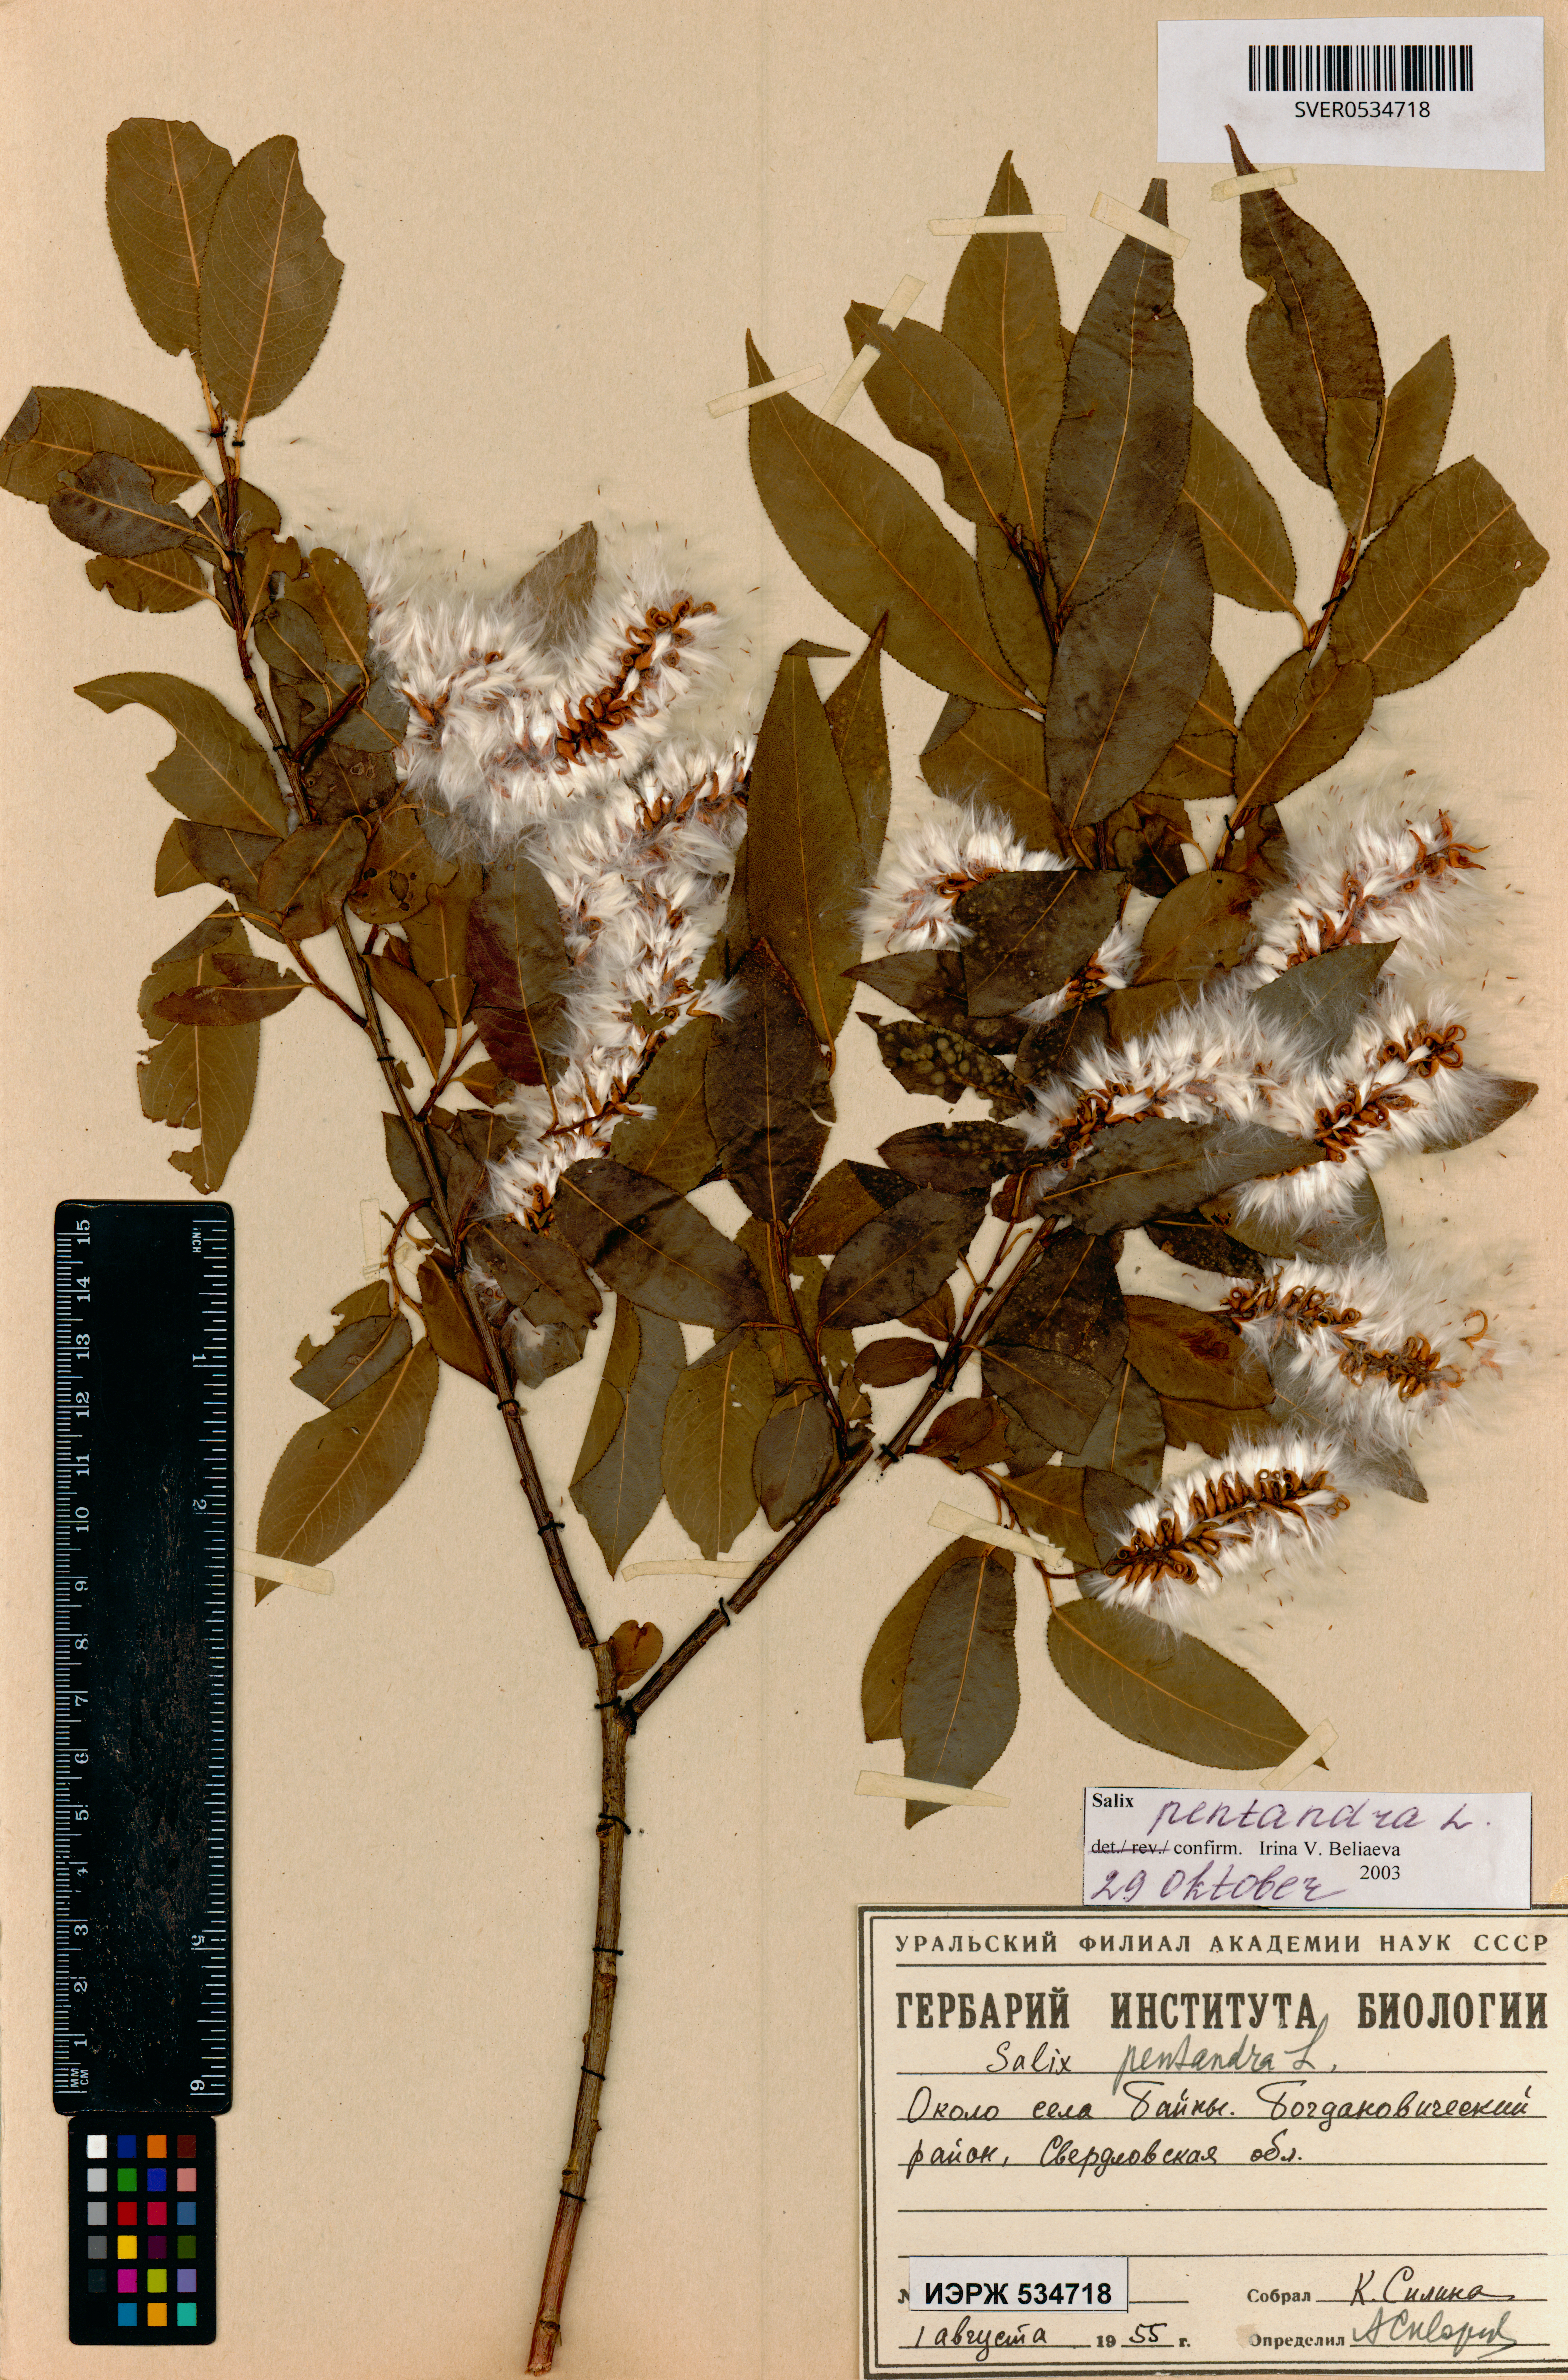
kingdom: Plantae
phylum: Tracheophyta
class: Magnoliopsida
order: Malpighiales
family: Salicaceae
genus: Salix
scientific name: Salix pentandra
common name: Bay willow
